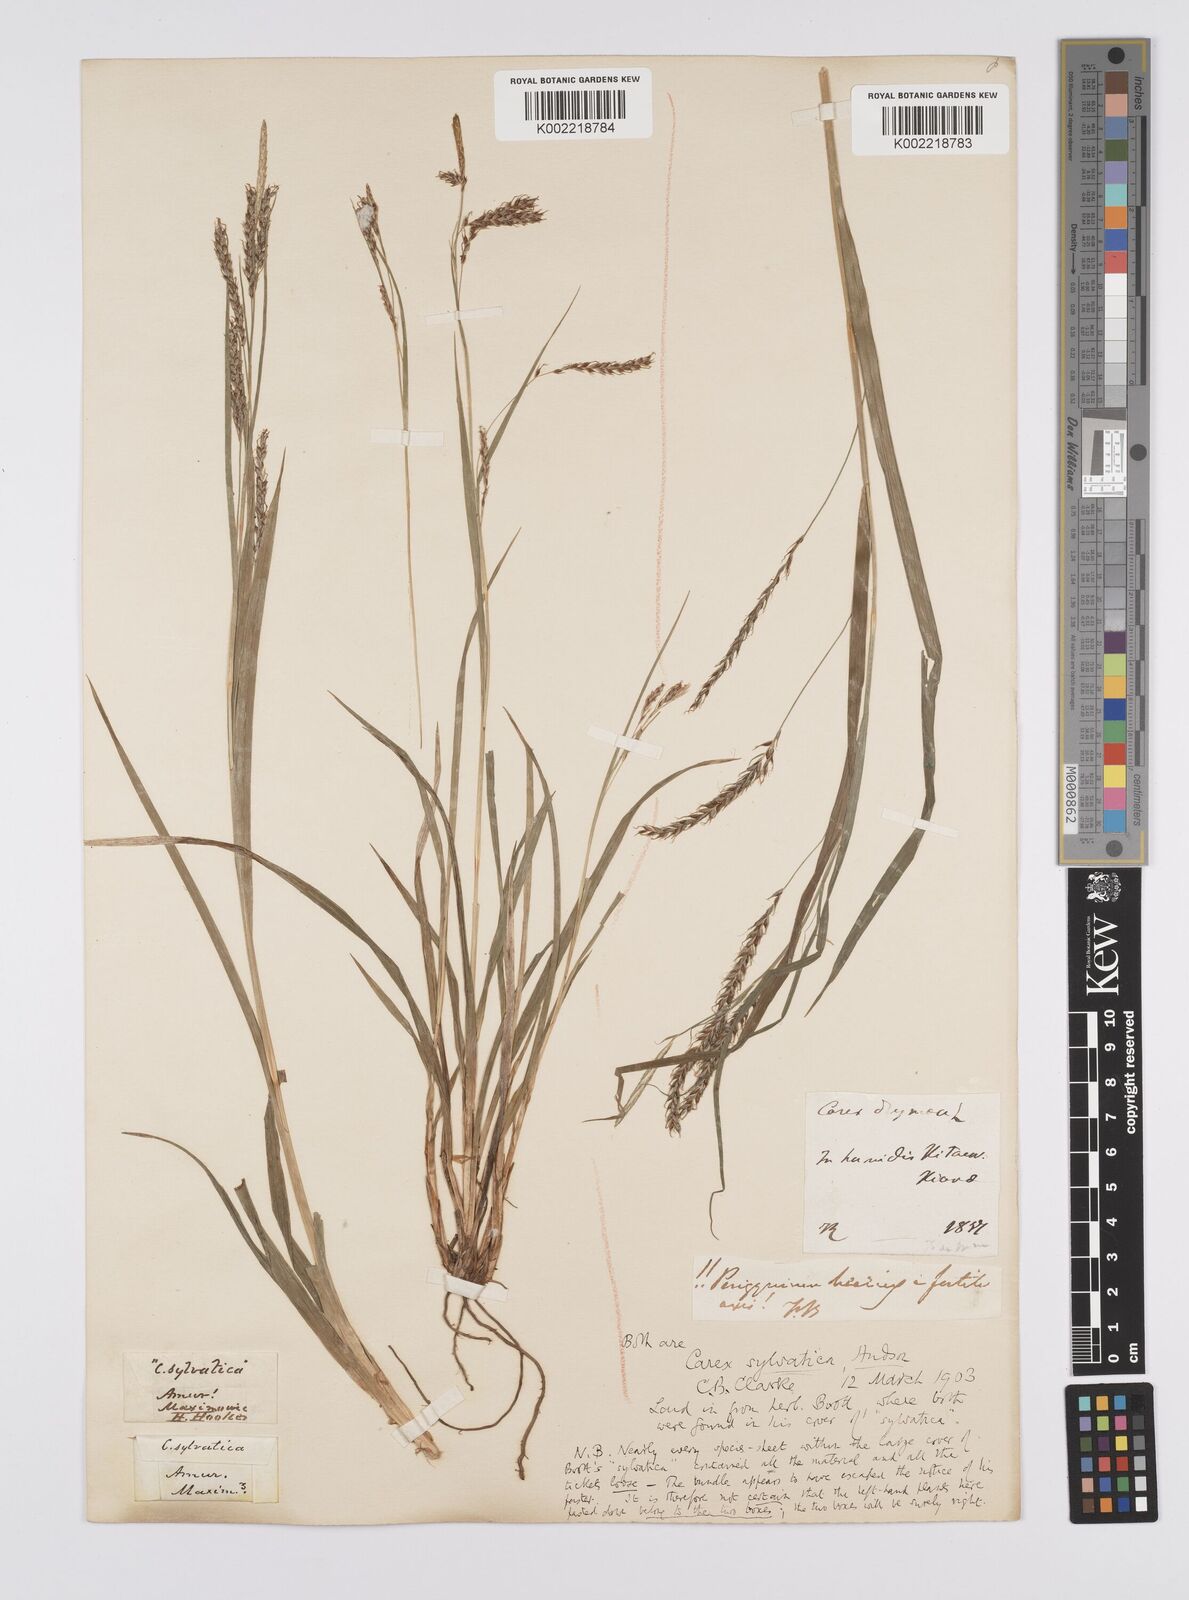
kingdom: Plantae
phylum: Tracheophyta
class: Liliopsida
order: Poales
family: Cyperaceae
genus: Carex
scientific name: Carex arnellii
